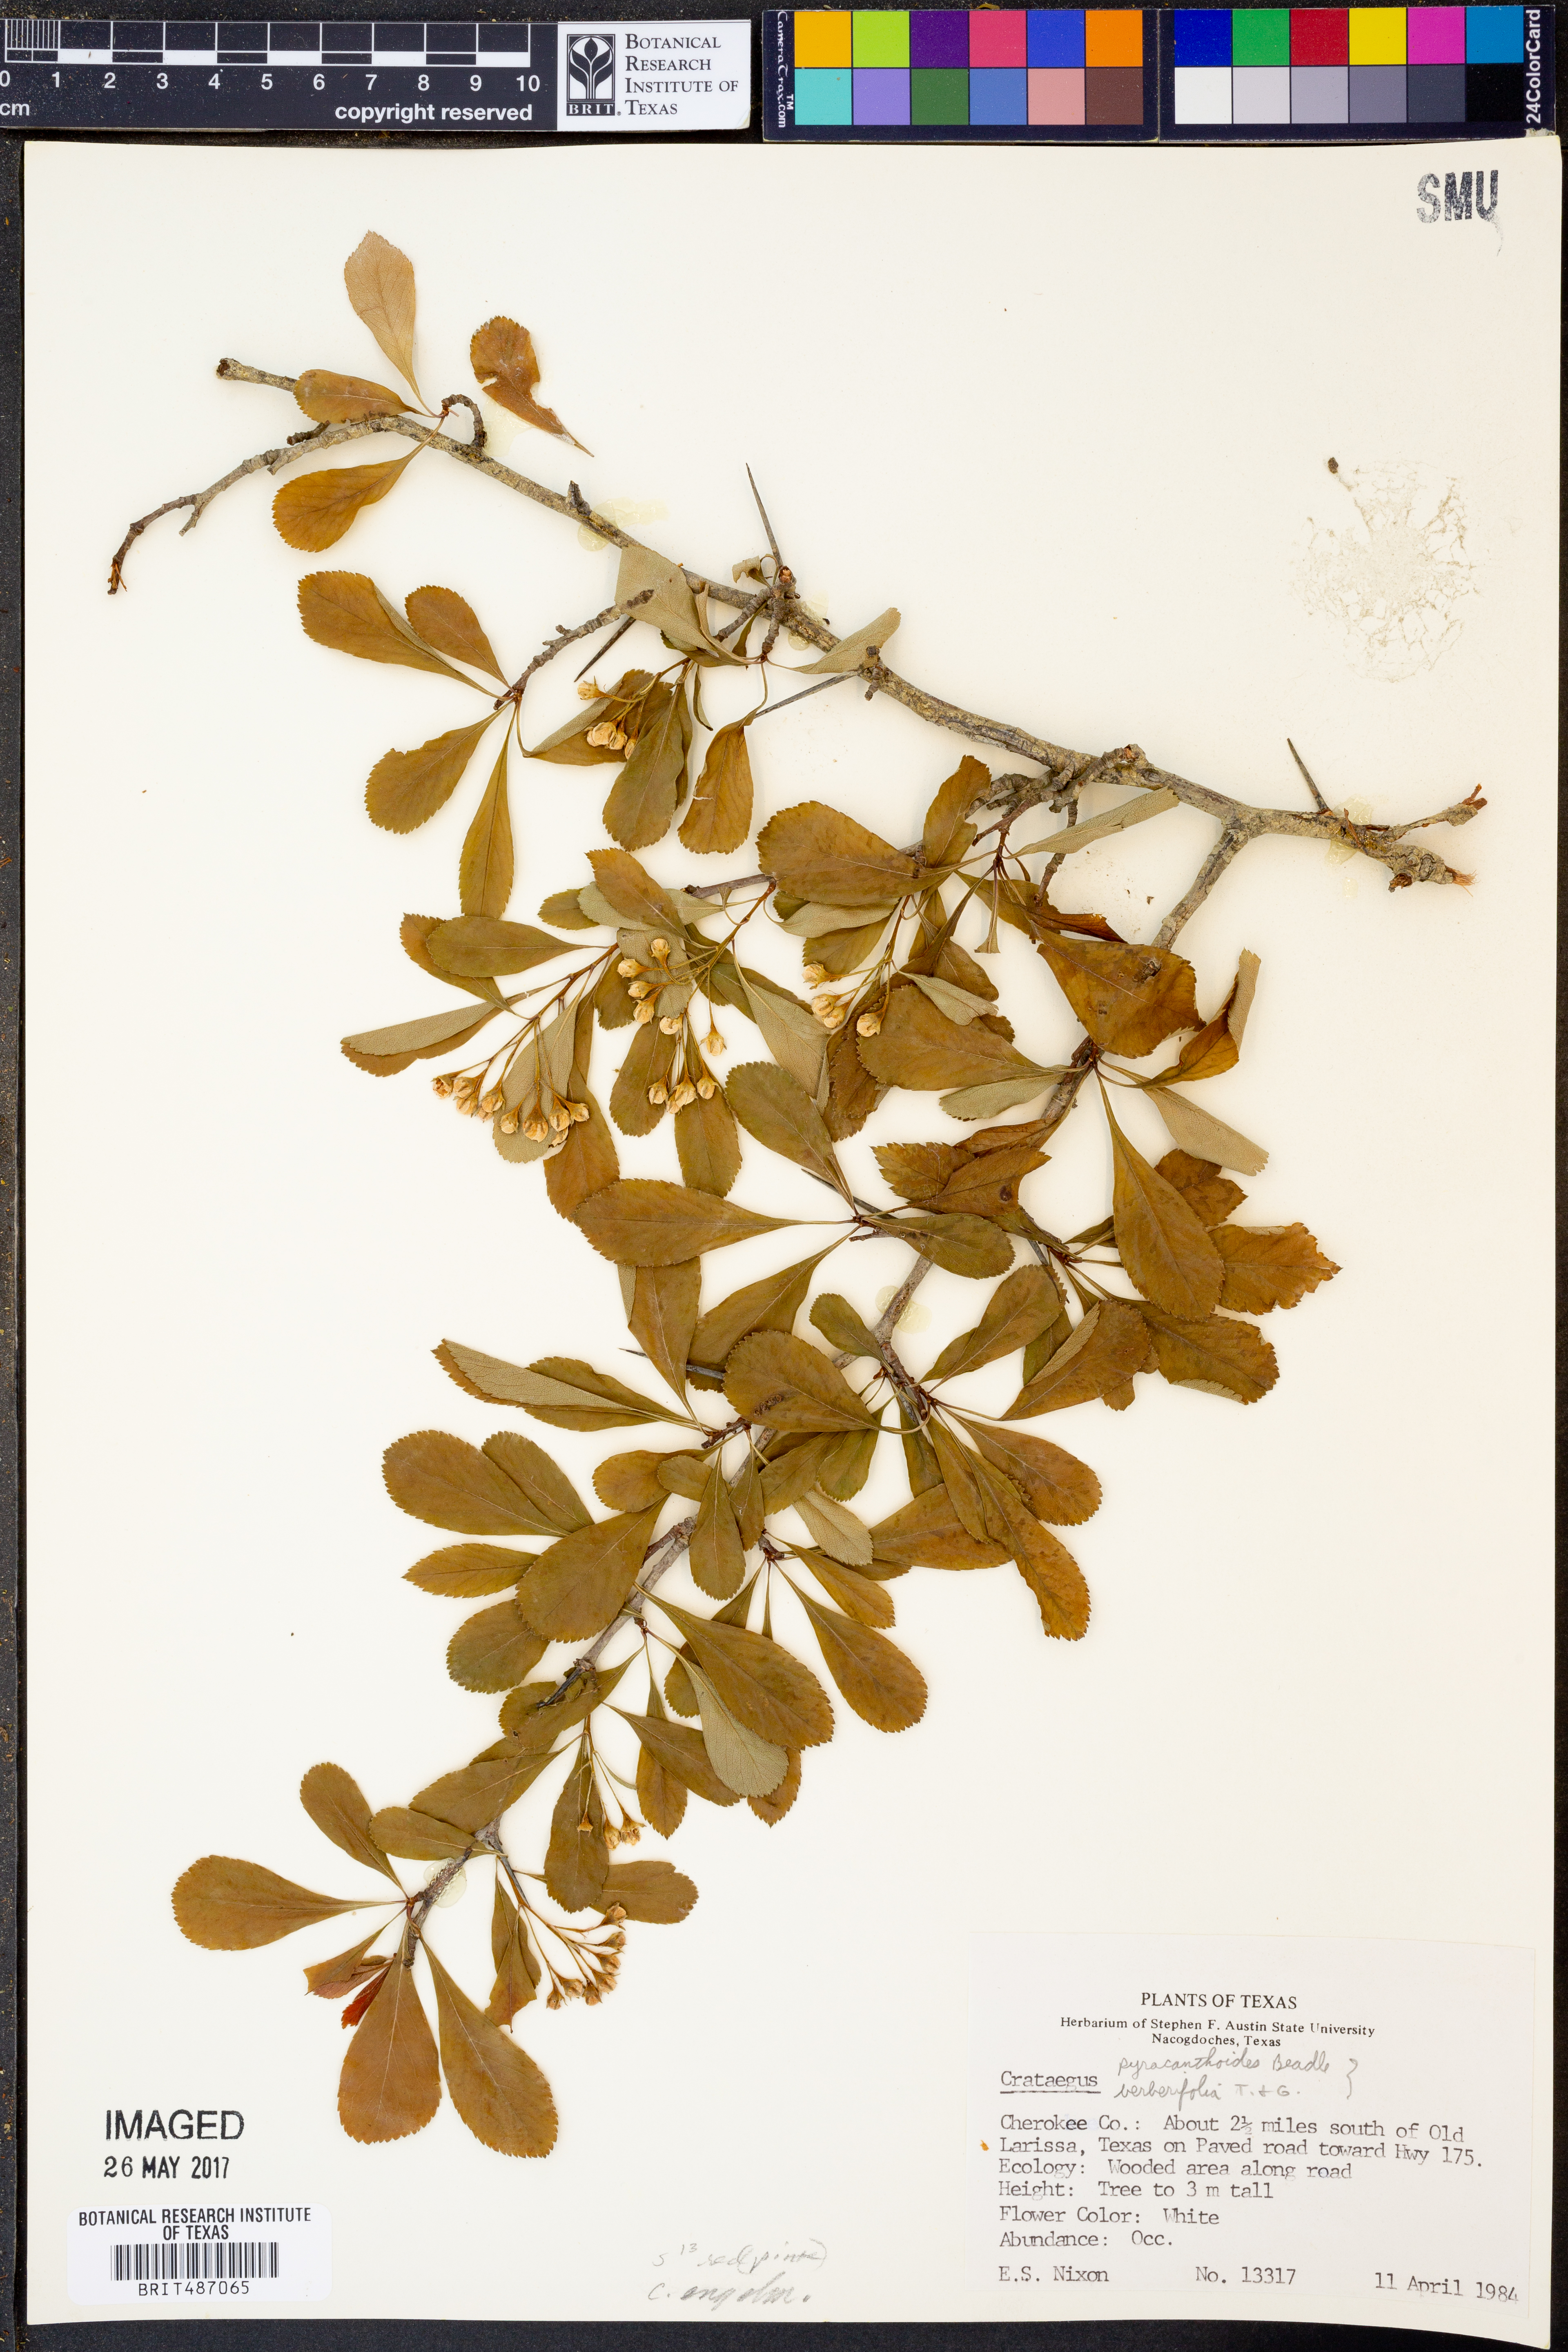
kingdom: Plantae
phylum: Tracheophyta
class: Magnoliopsida
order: Rosales
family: Rosaceae
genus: Crataegus
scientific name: Crataegus crus-galli
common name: Cockspurthorn
